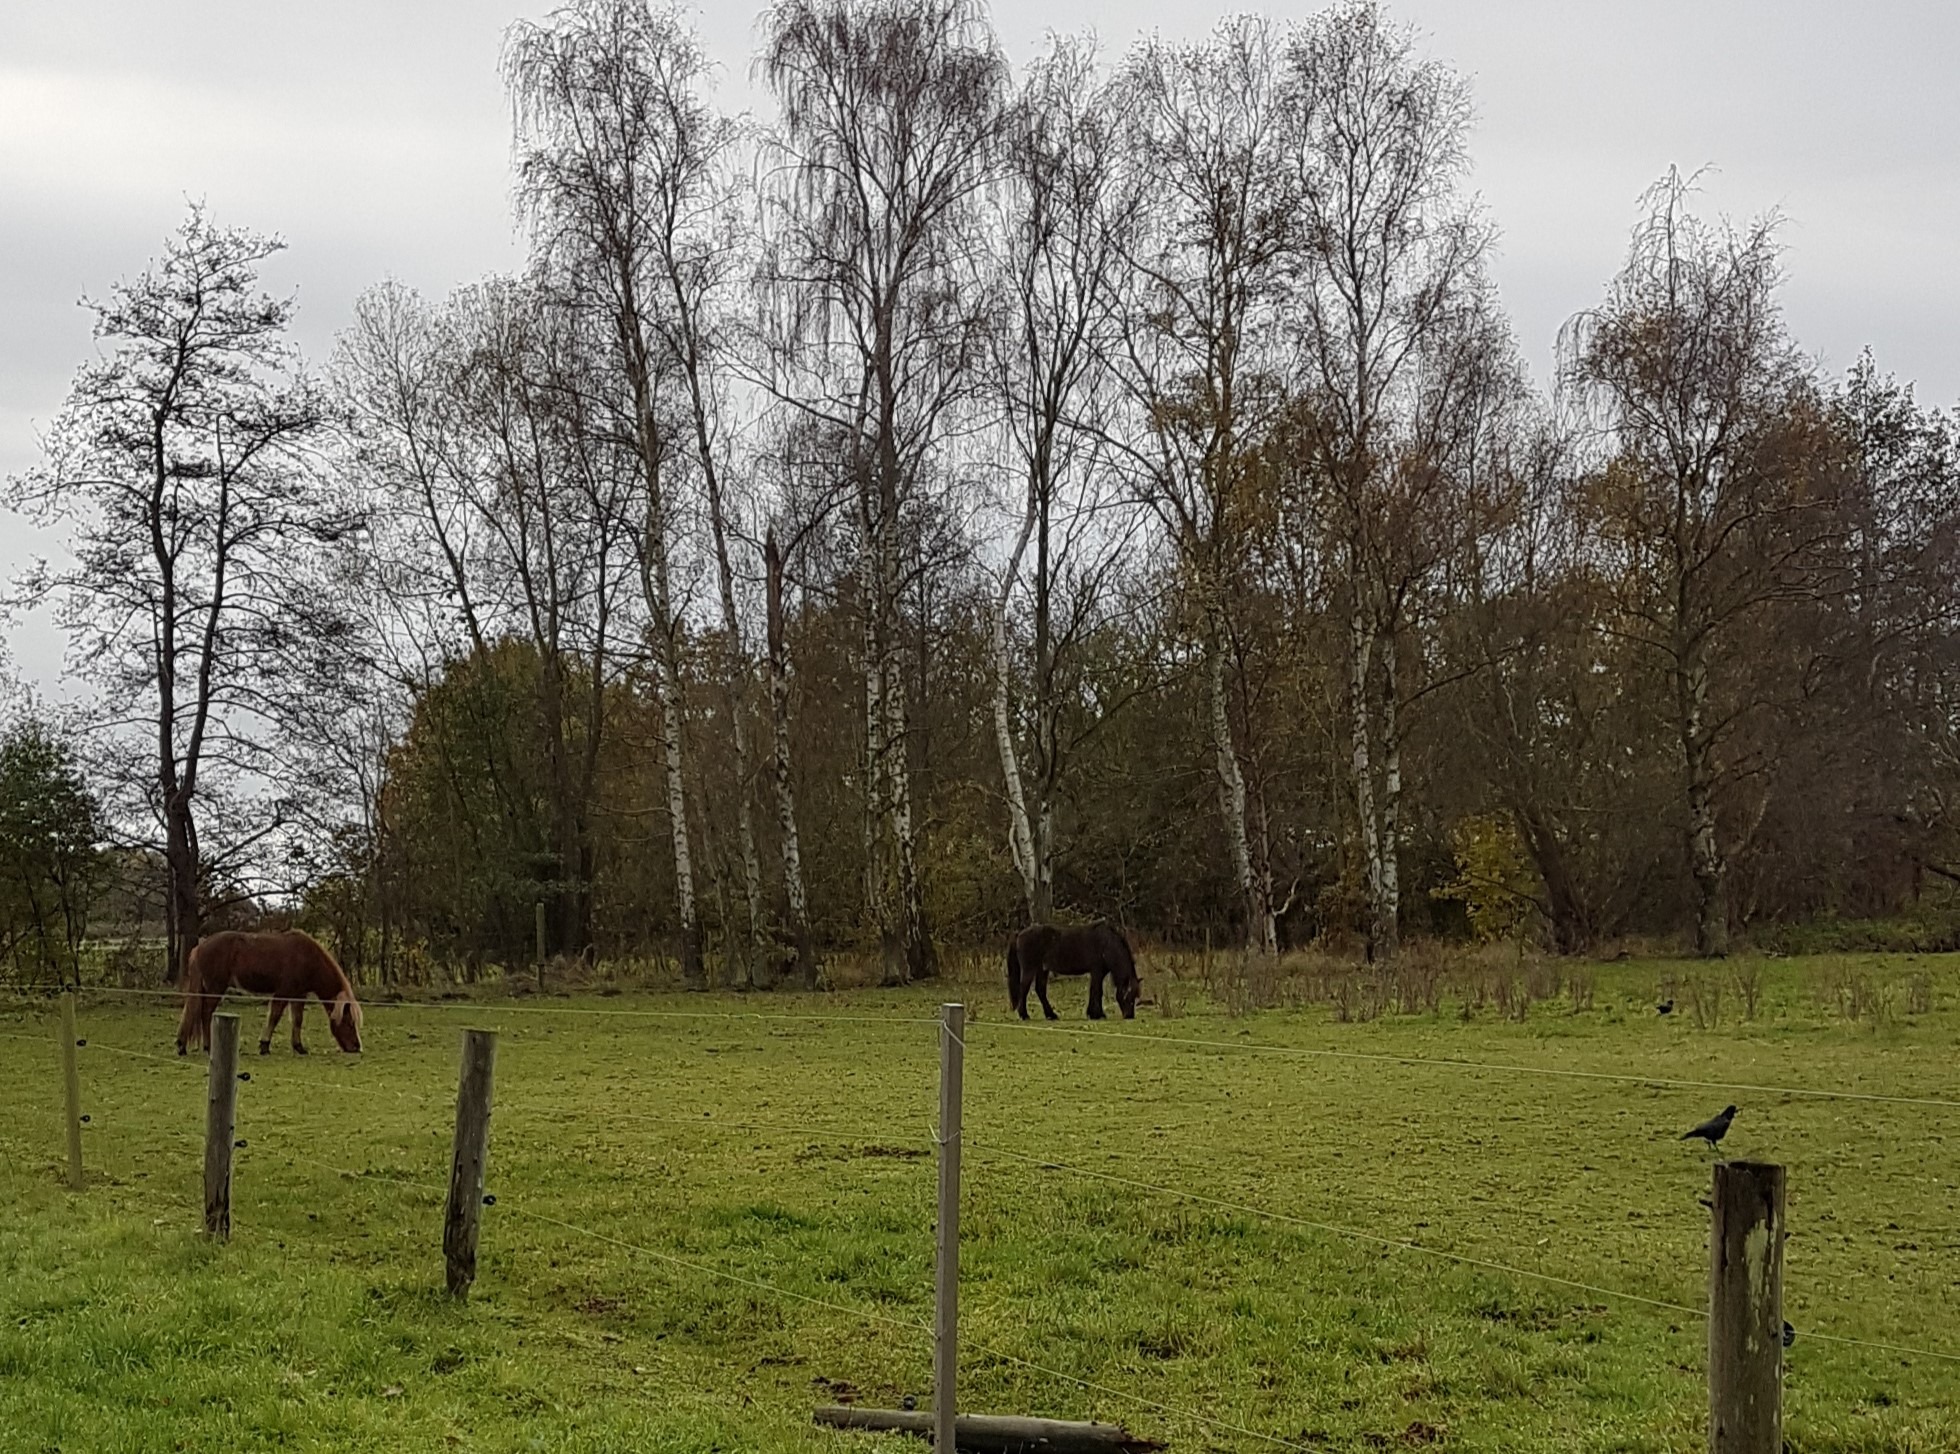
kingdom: Animalia
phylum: Chordata
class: Aves
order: Passeriformes
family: Corvidae
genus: Corvus
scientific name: Corvus frugilegus
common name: Råge
